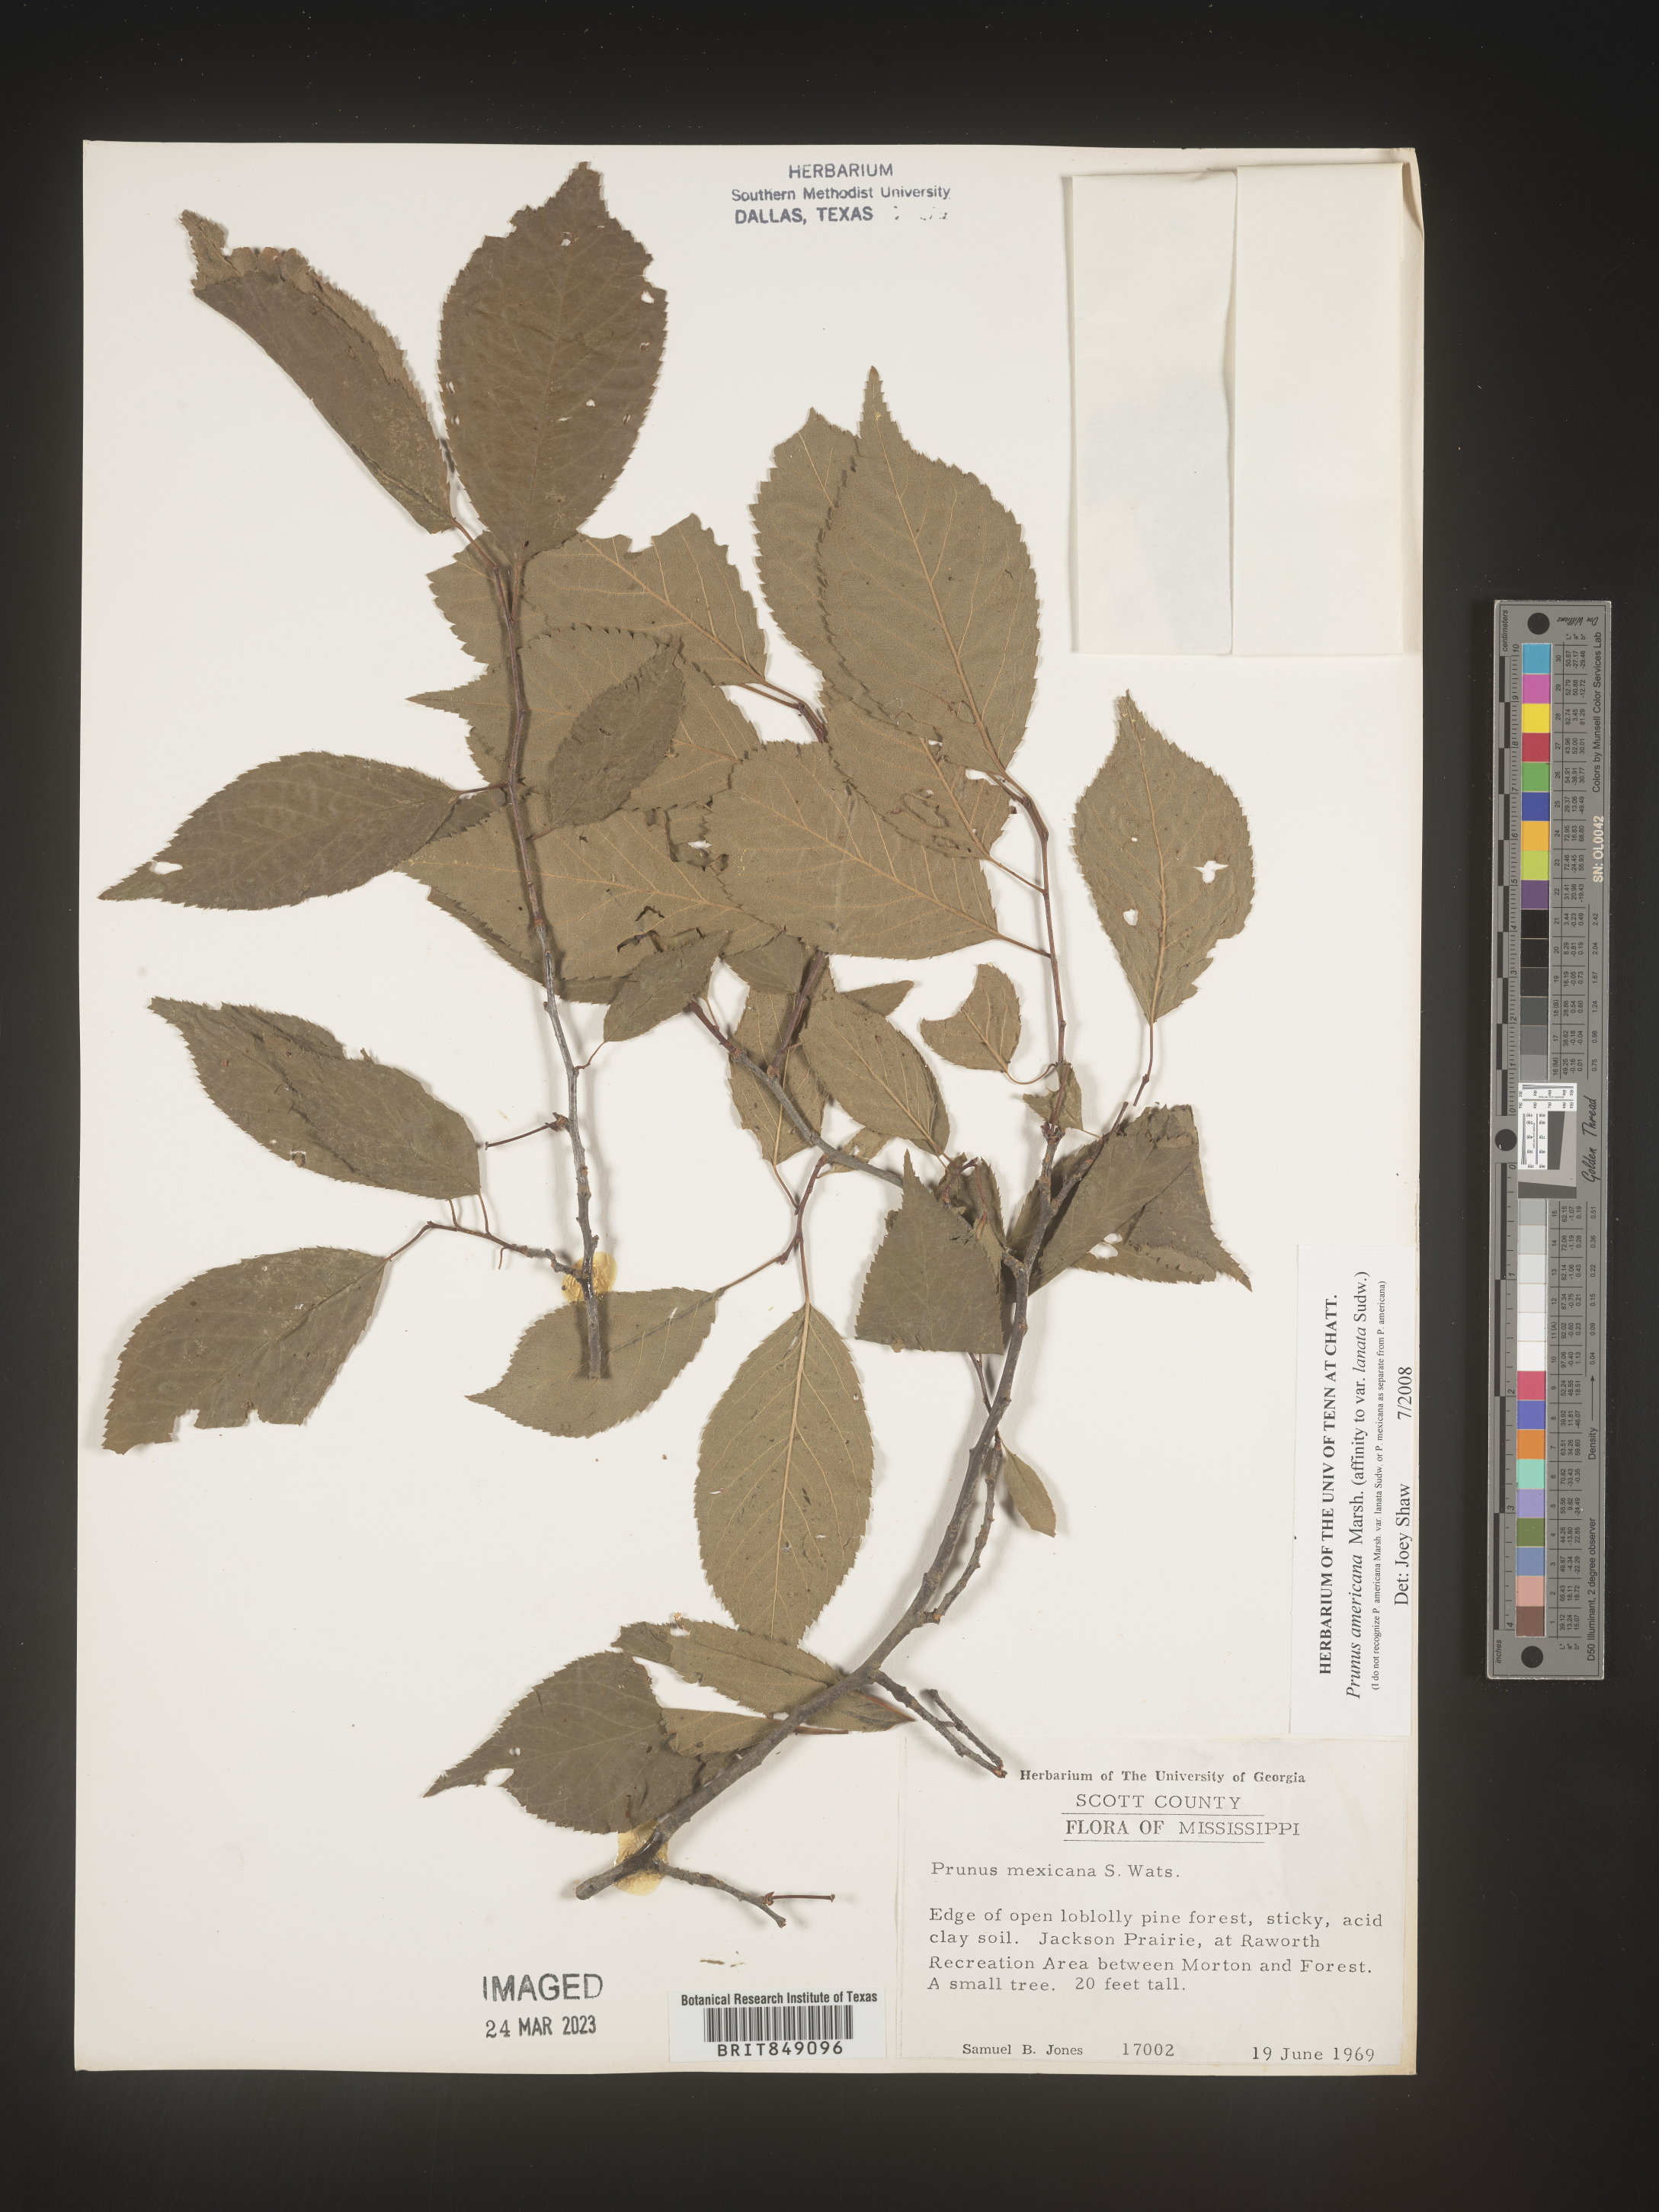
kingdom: Plantae
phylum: Tracheophyta
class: Magnoliopsida
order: Rosales
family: Rosaceae
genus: Prunus
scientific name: Prunus americana
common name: American plum
